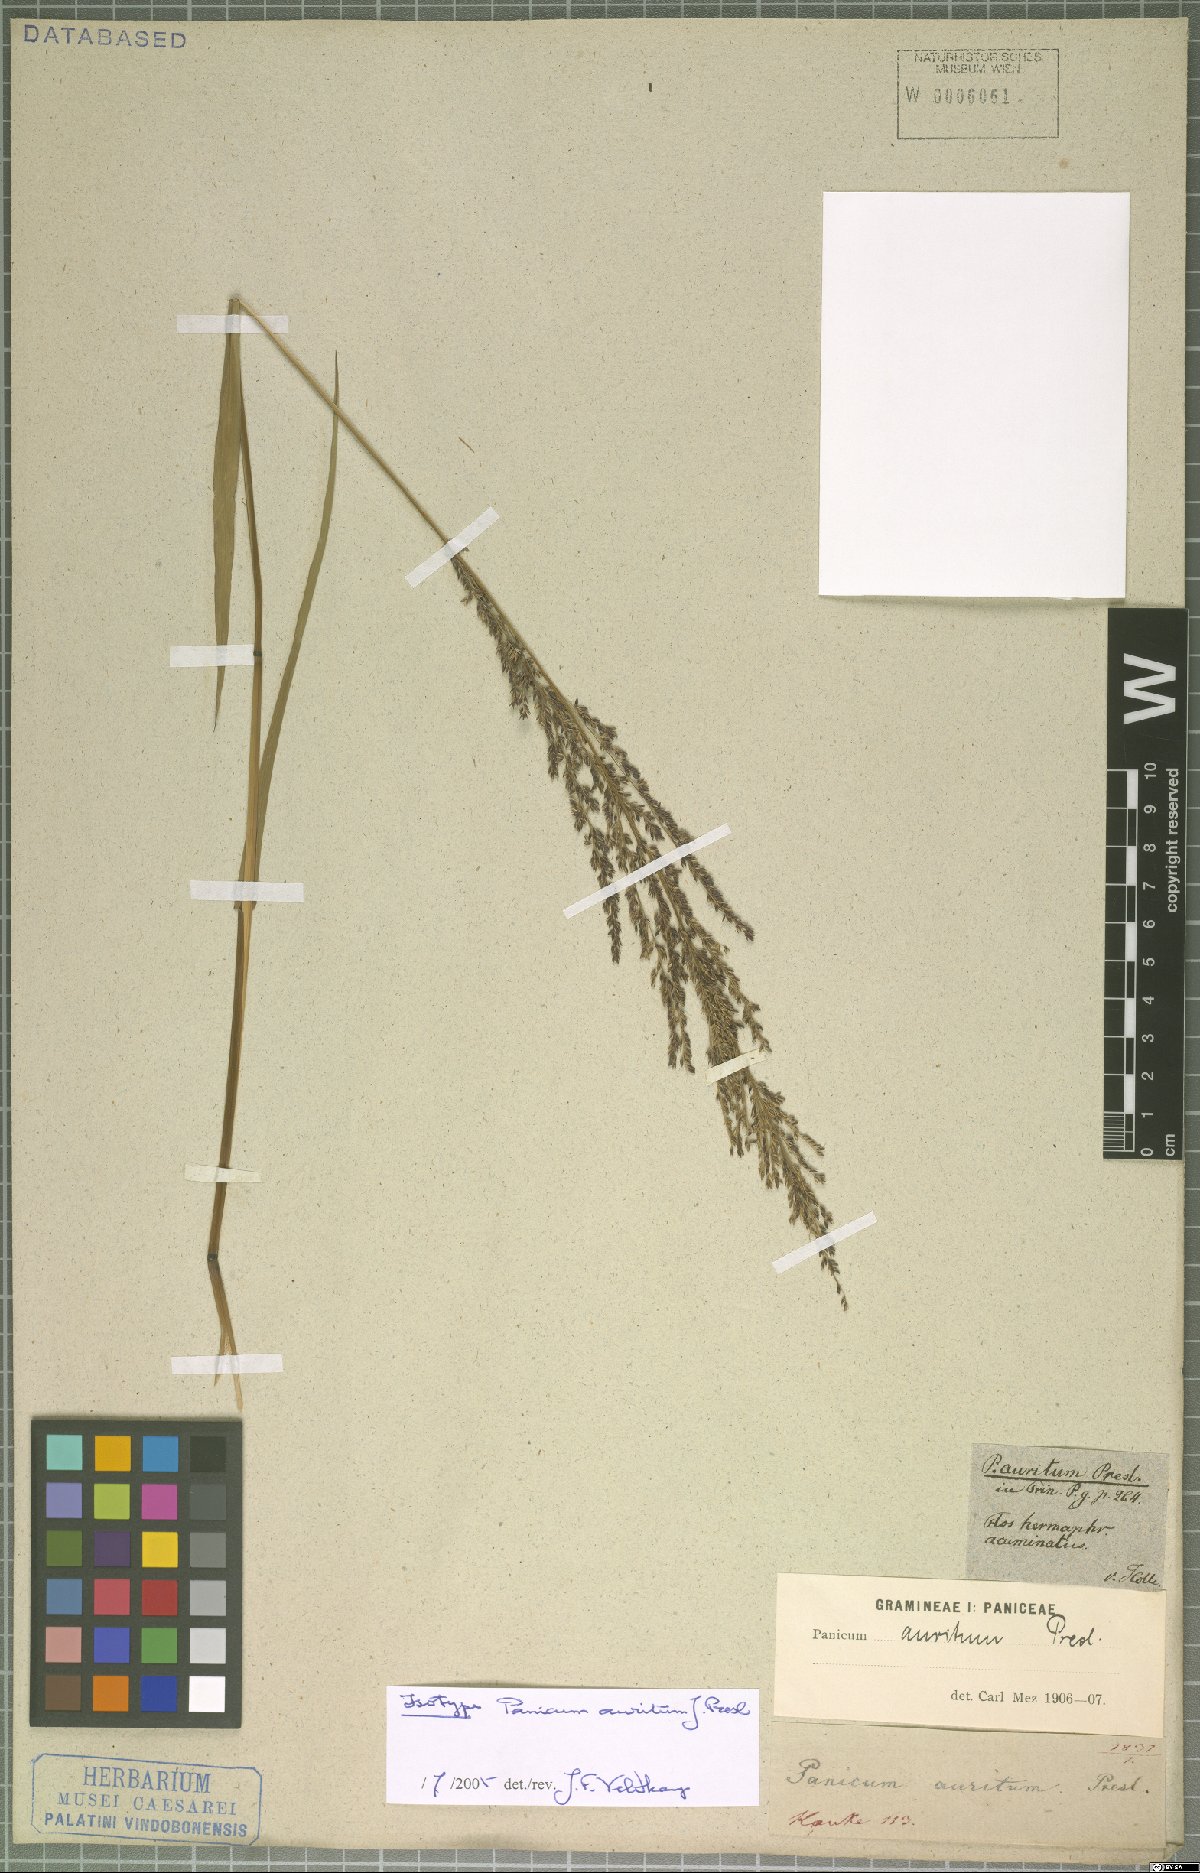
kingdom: Plantae
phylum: Tracheophyta
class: Liliopsida
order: Poales
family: Poaceae
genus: Hymenachne
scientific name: Hymenachne aurita
